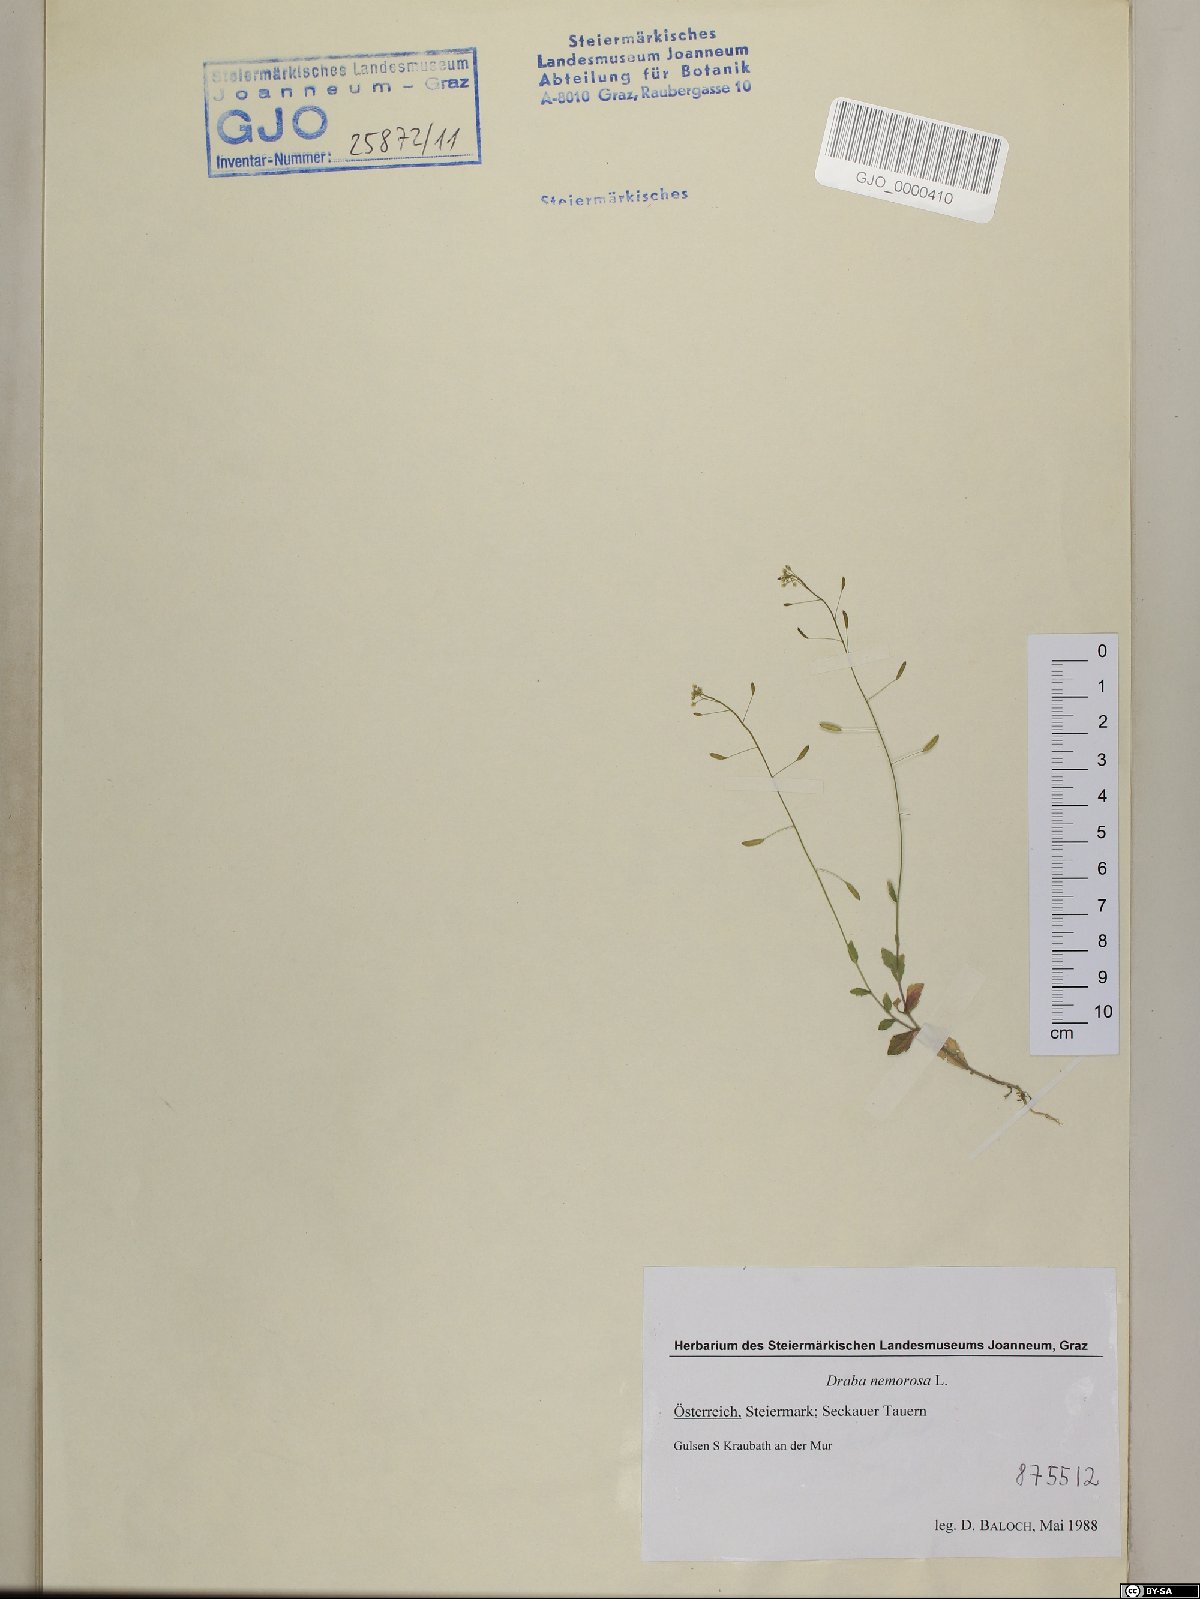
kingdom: Plantae
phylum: Tracheophyta
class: Magnoliopsida
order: Brassicales
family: Brassicaceae
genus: Draba
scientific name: Draba nemorosa
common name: Wood whitlow-grass
